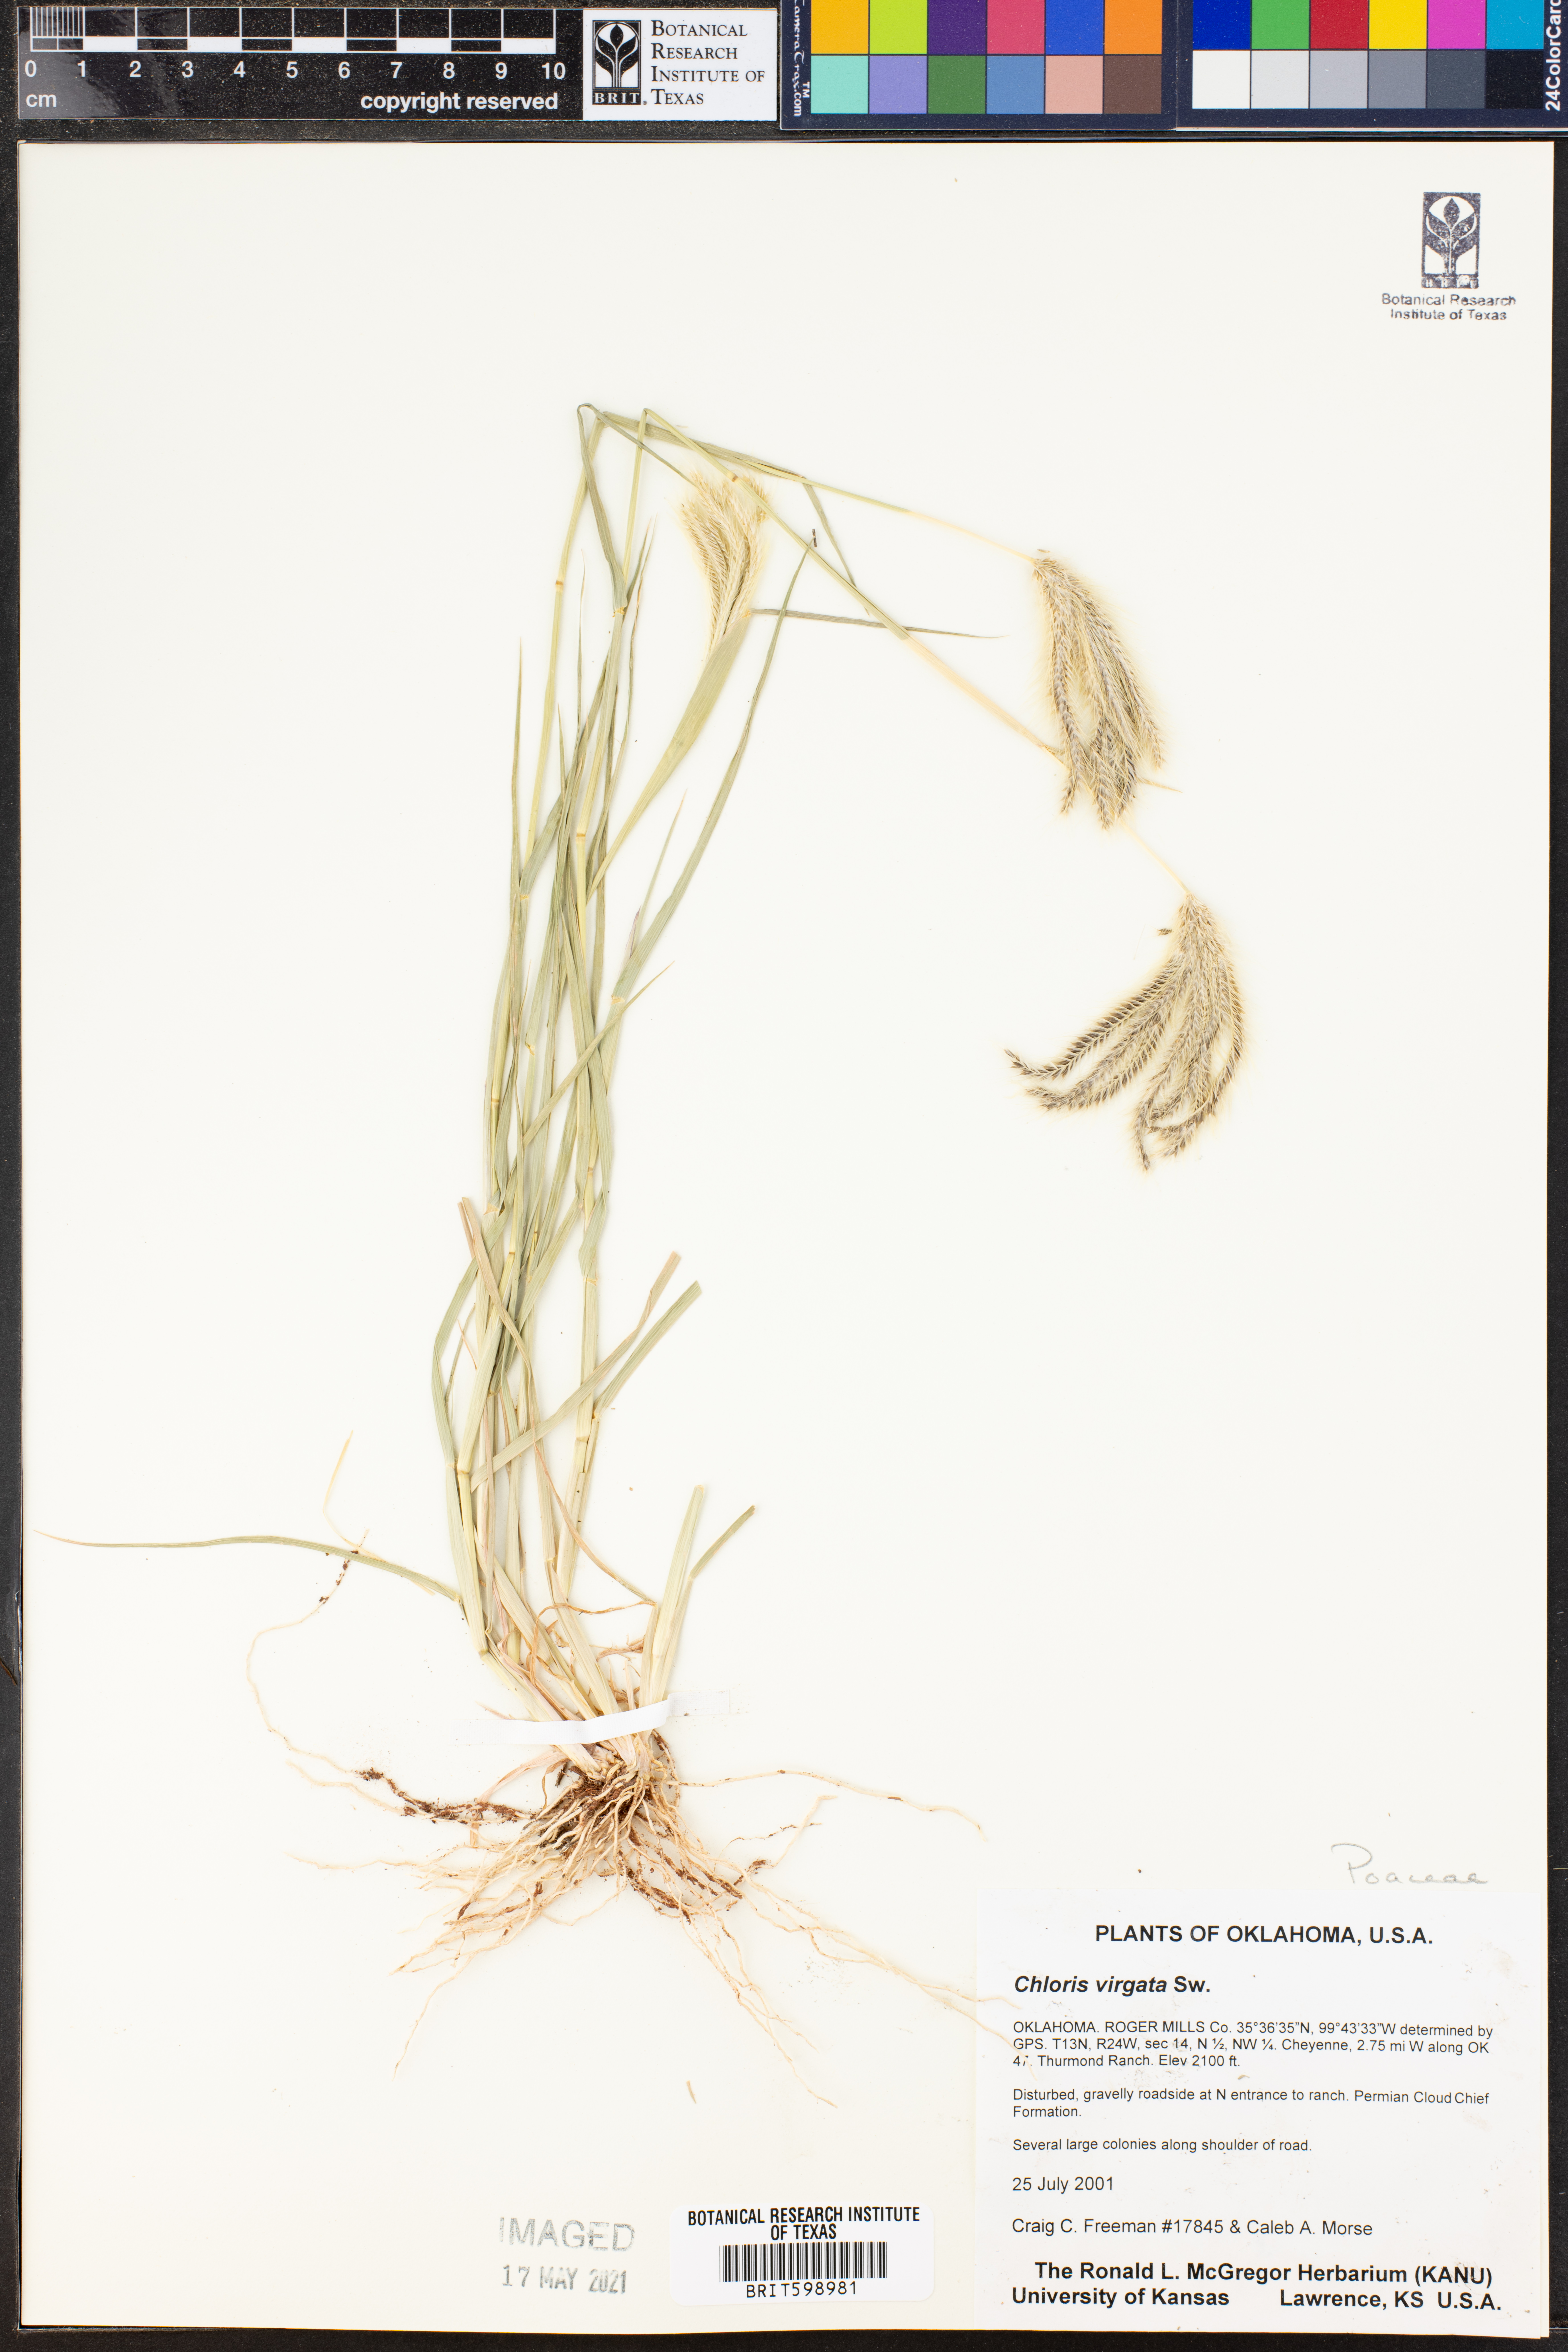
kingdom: Plantae
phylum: Tracheophyta
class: Liliopsida
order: Poales
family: Poaceae
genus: Chloris
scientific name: Chloris virgata
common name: Feathery rhodes-grass
